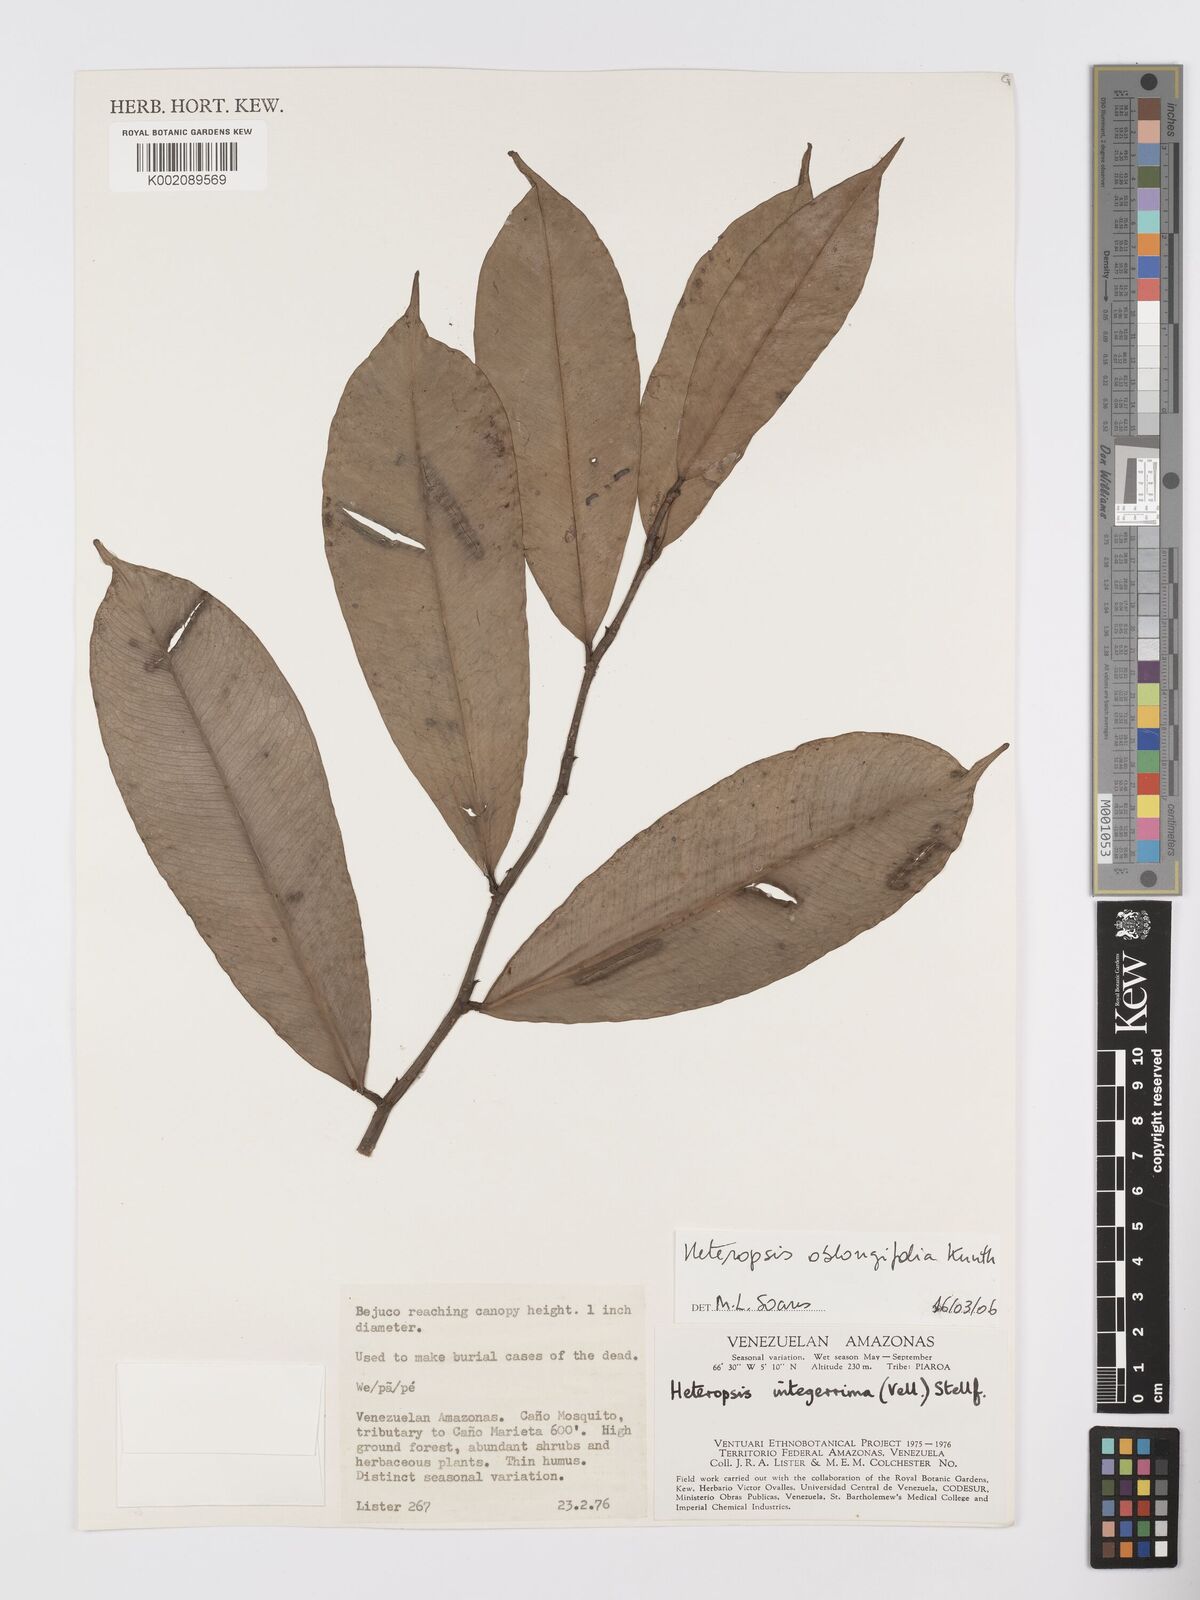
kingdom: Plantae
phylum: Tracheophyta
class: Liliopsida
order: Alismatales
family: Araceae
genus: Heteropsis
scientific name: Heteropsis oblongifolia
